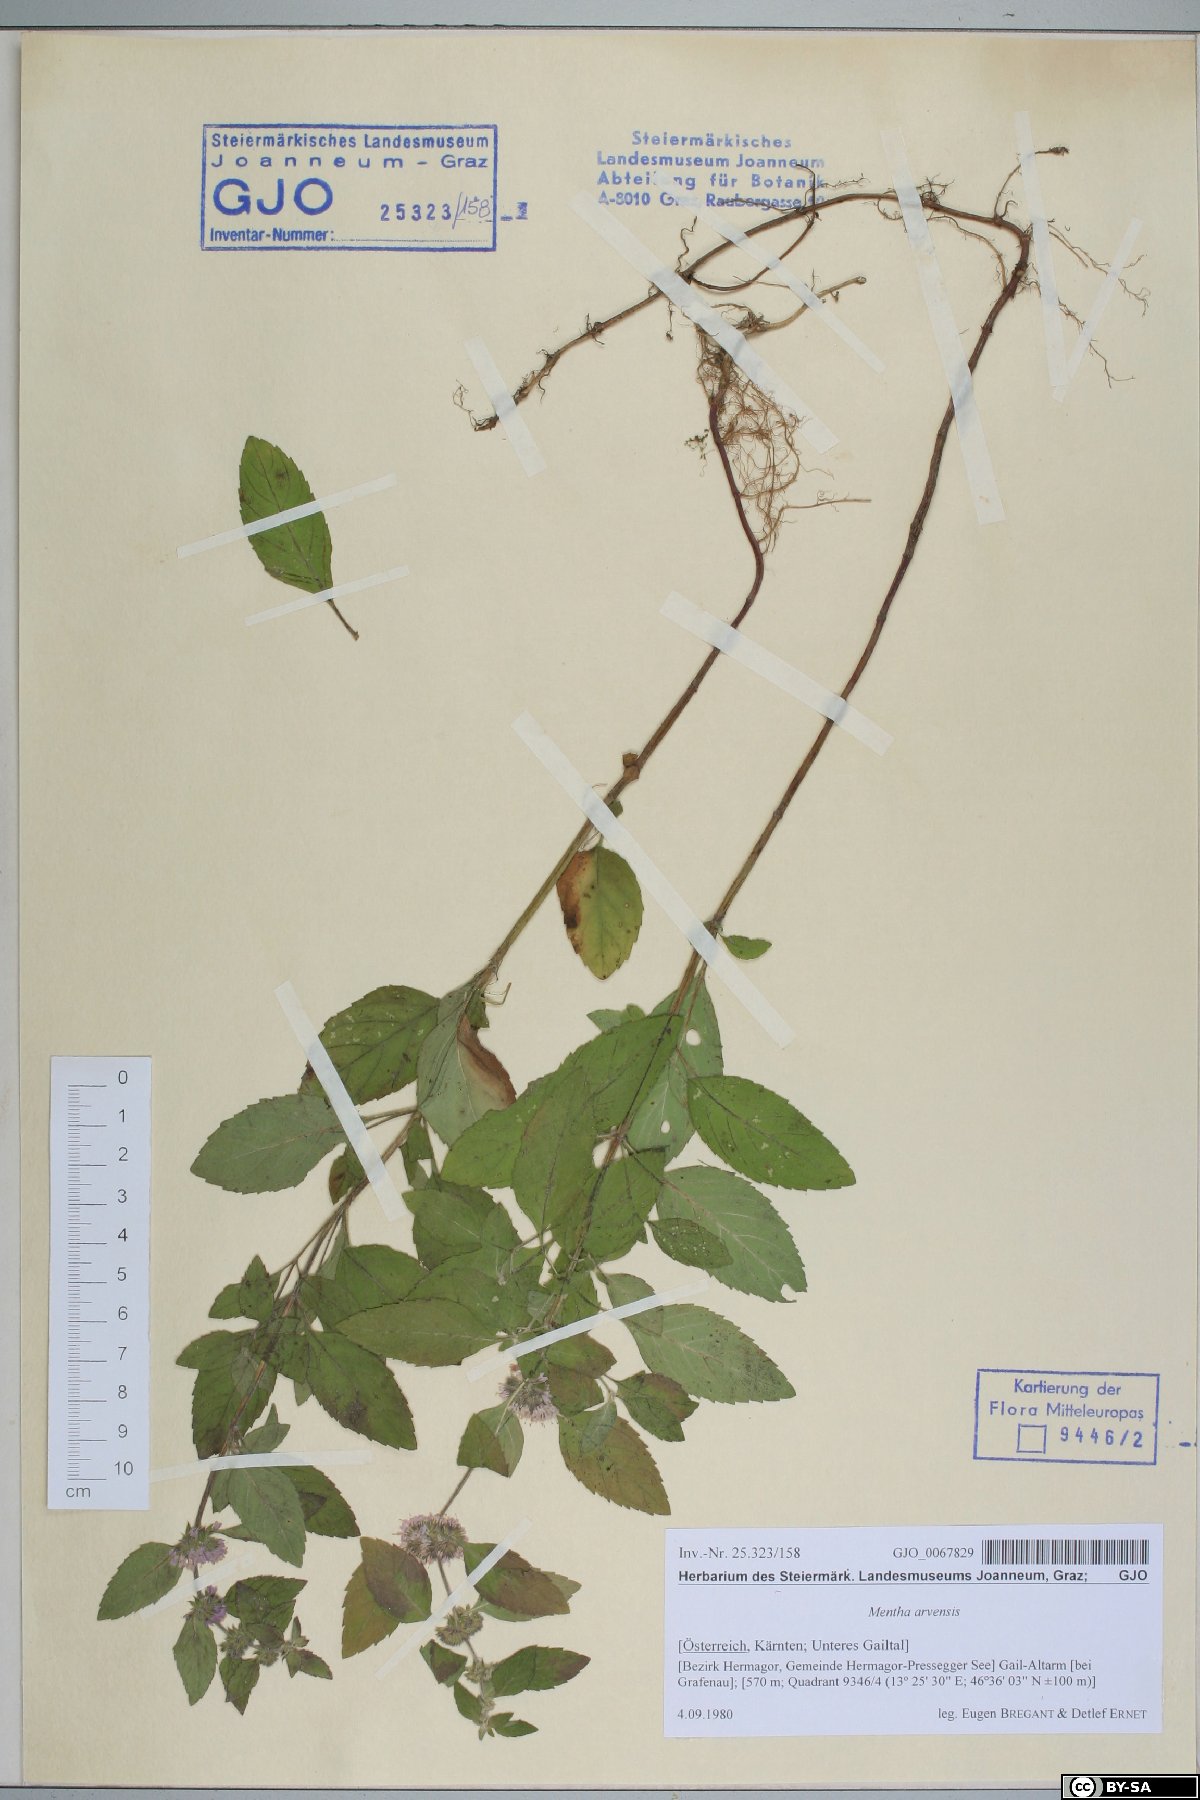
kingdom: Plantae
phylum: Tracheophyta
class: Magnoliopsida
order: Lamiales
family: Lamiaceae
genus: Mentha
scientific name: Mentha arvensis
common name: Corn mint
